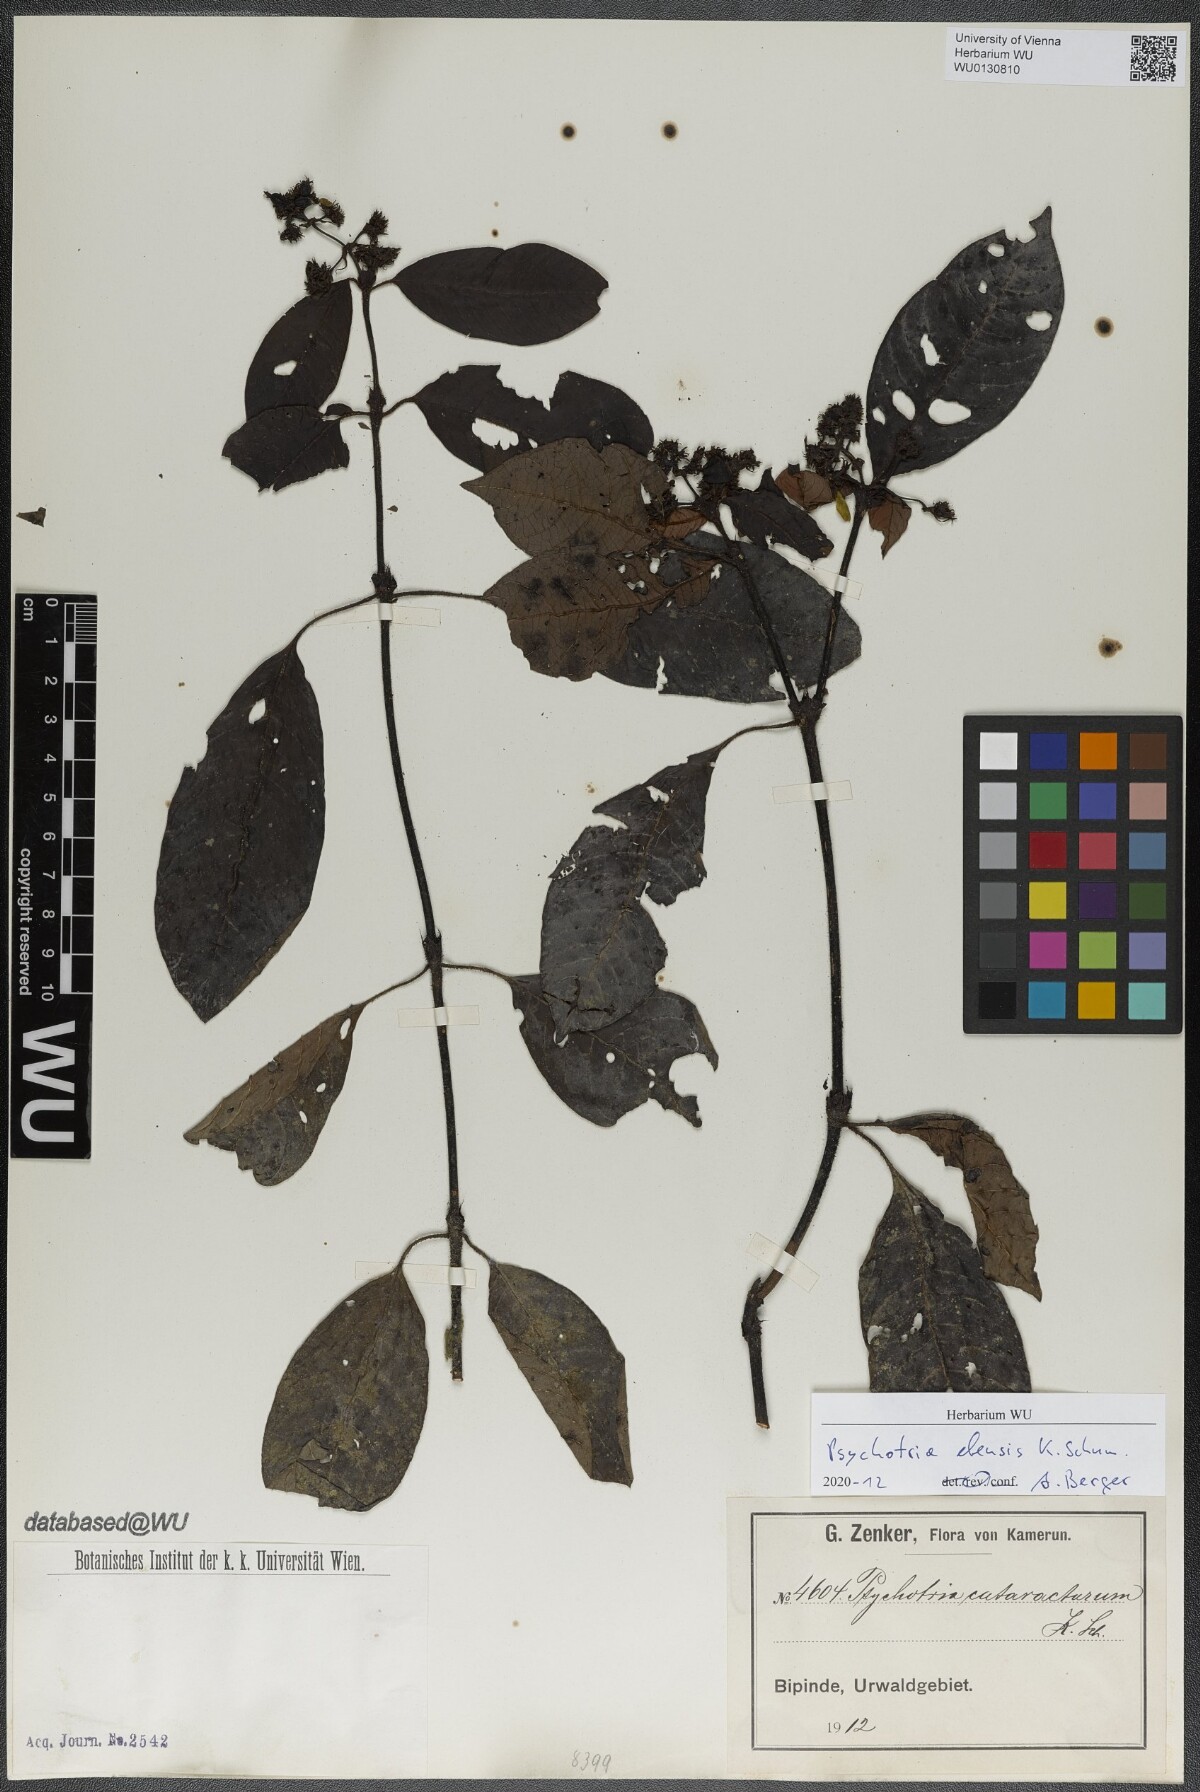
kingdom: Plantae
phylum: Tracheophyta
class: Magnoliopsida
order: Gentianales
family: Rubiaceae
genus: Psychotria
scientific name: Psychotria ebensis
